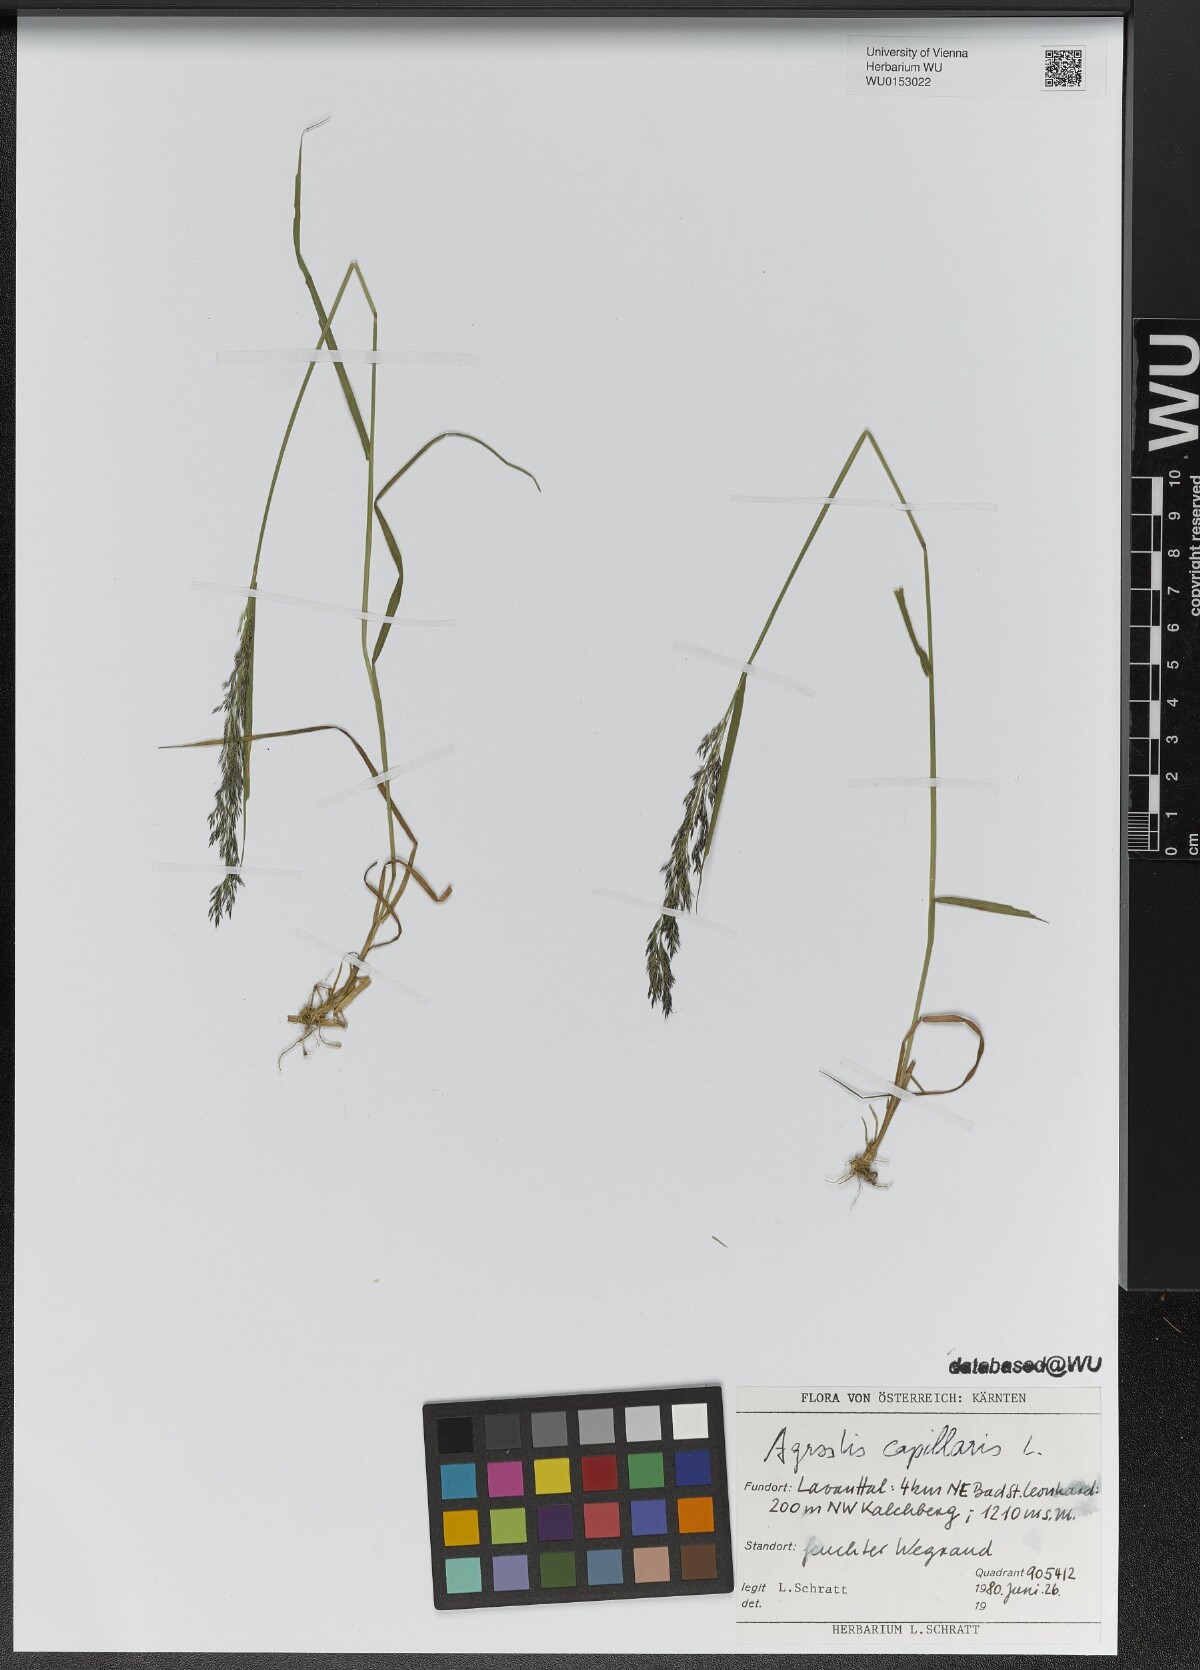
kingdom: Plantae
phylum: Tracheophyta
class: Liliopsida
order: Poales
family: Poaceae
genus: Agrostis
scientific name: Agrostis capillaris
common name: Colonial bentgrass
